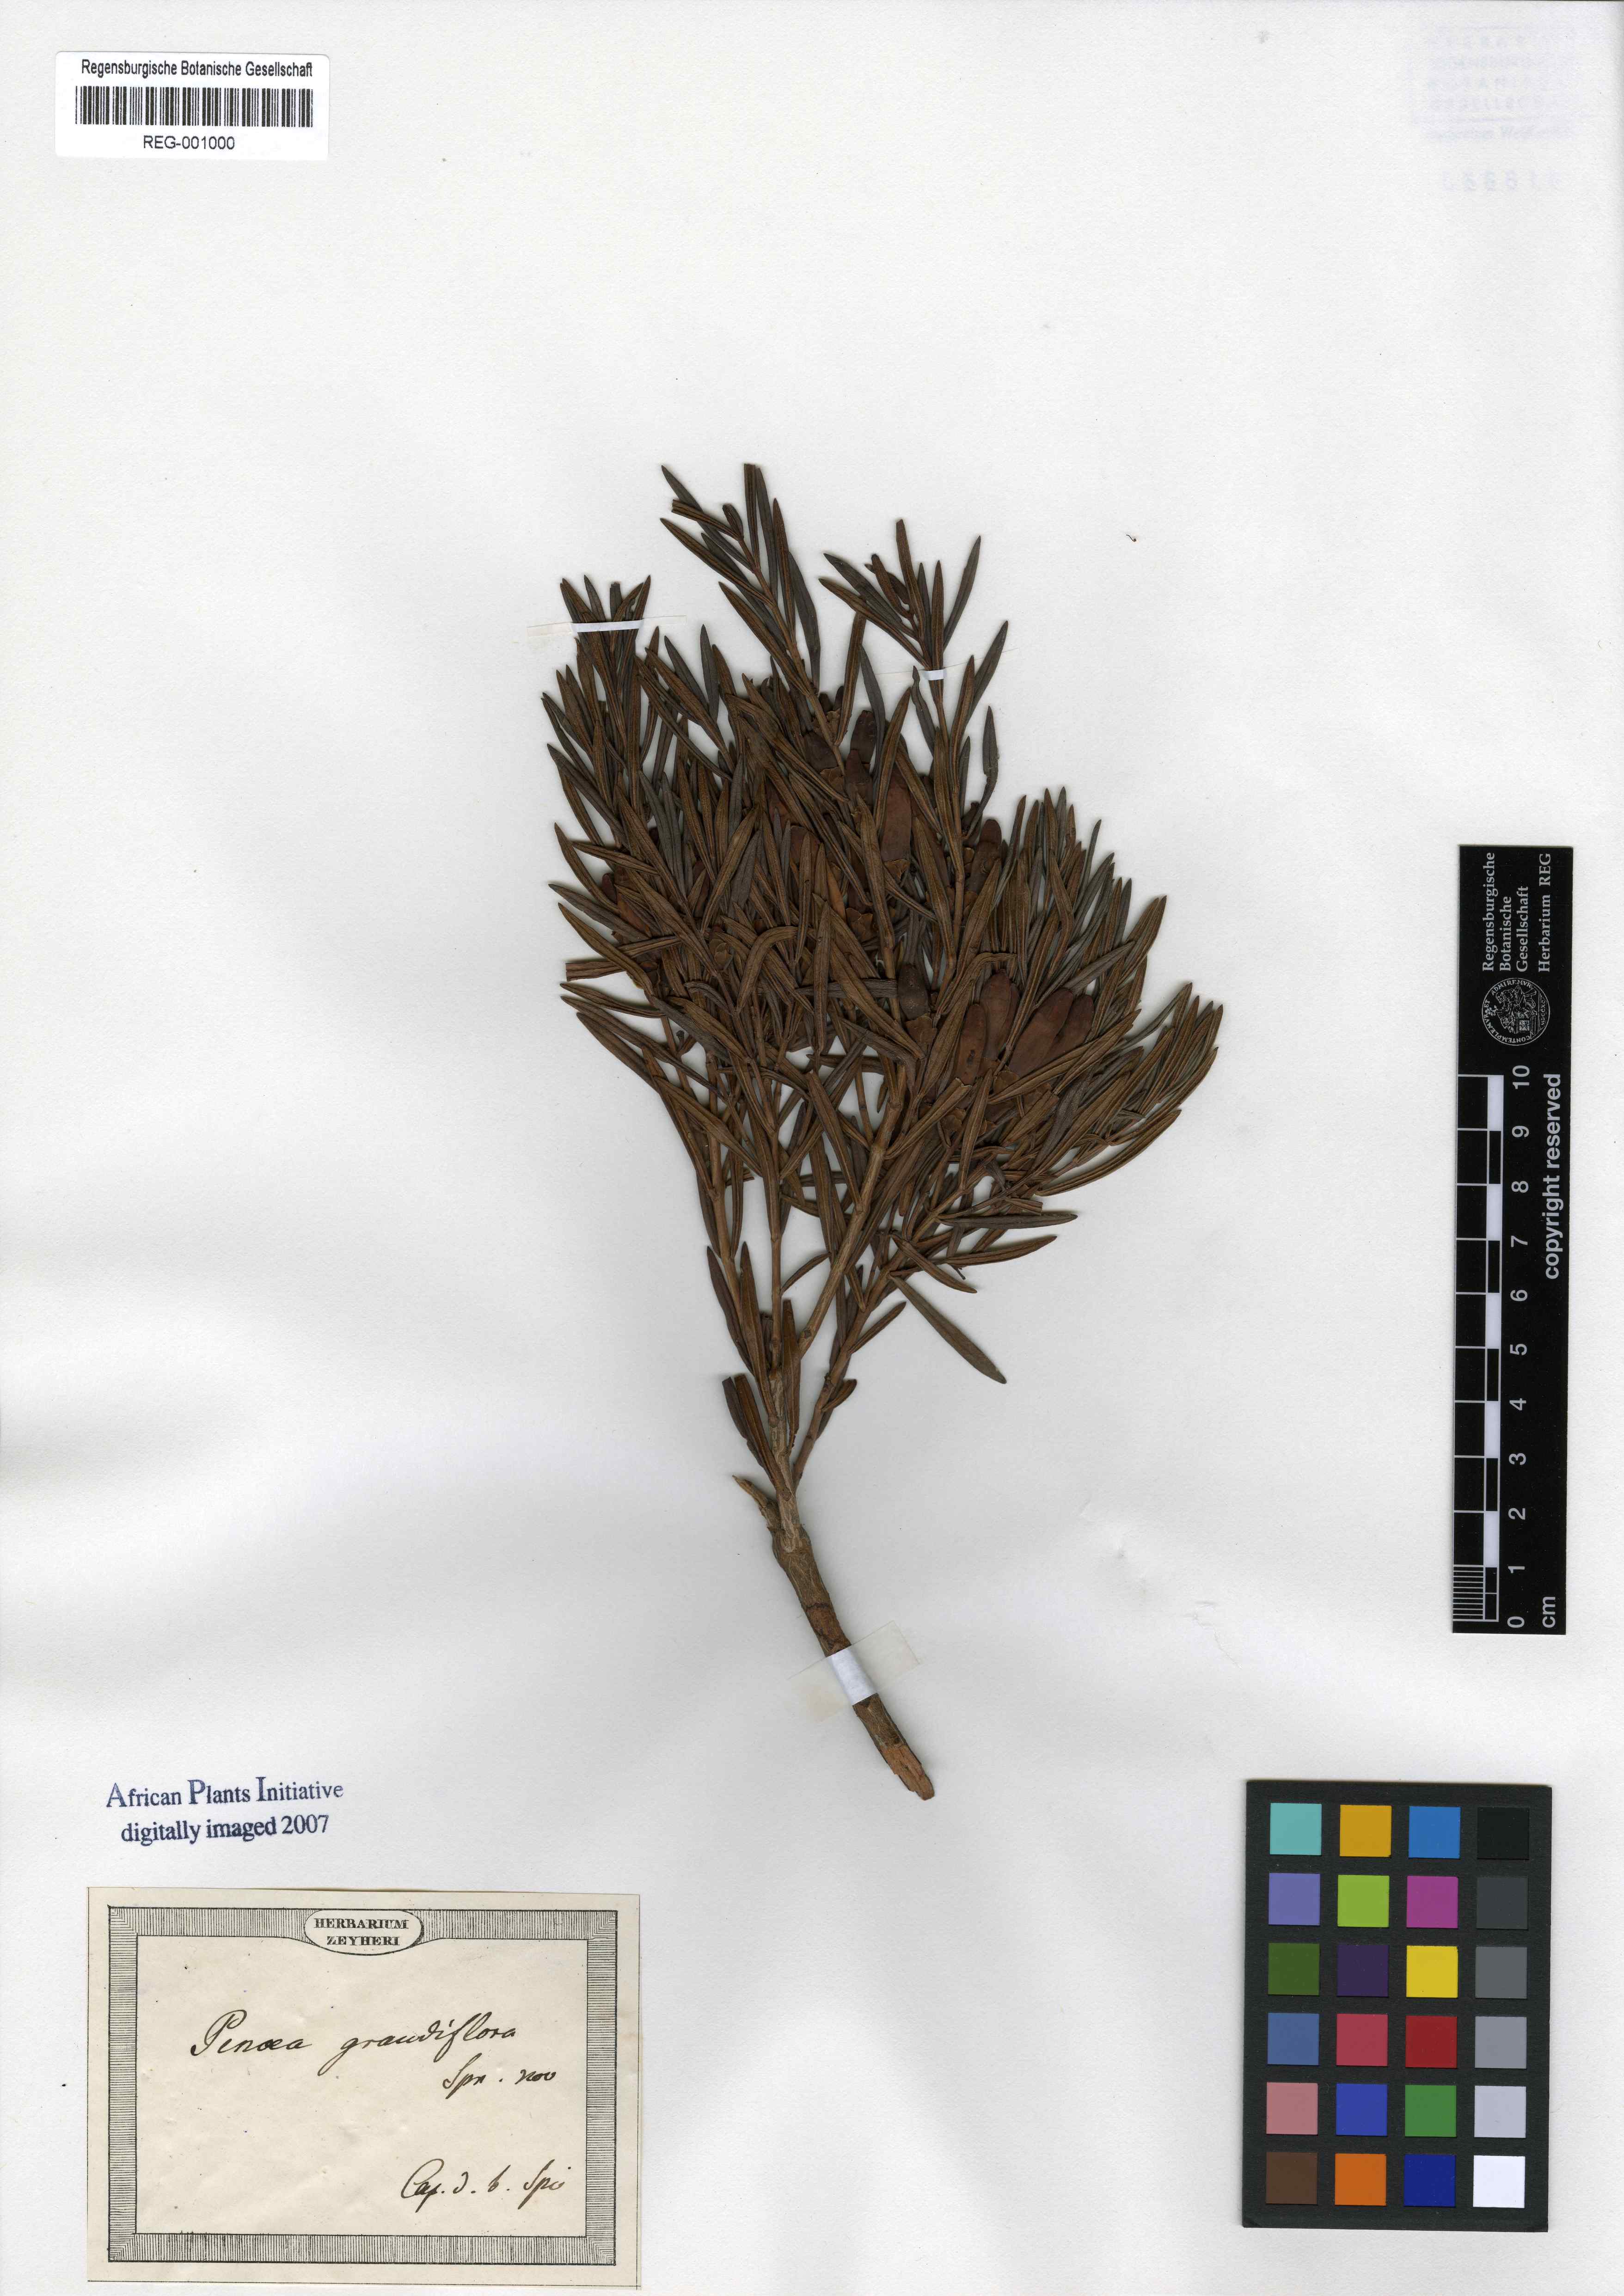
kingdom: Plantae
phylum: Tracheophyta
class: Magnoliopsida
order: Myrtales
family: Penaeaceae
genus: Penaea
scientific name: Penaea
